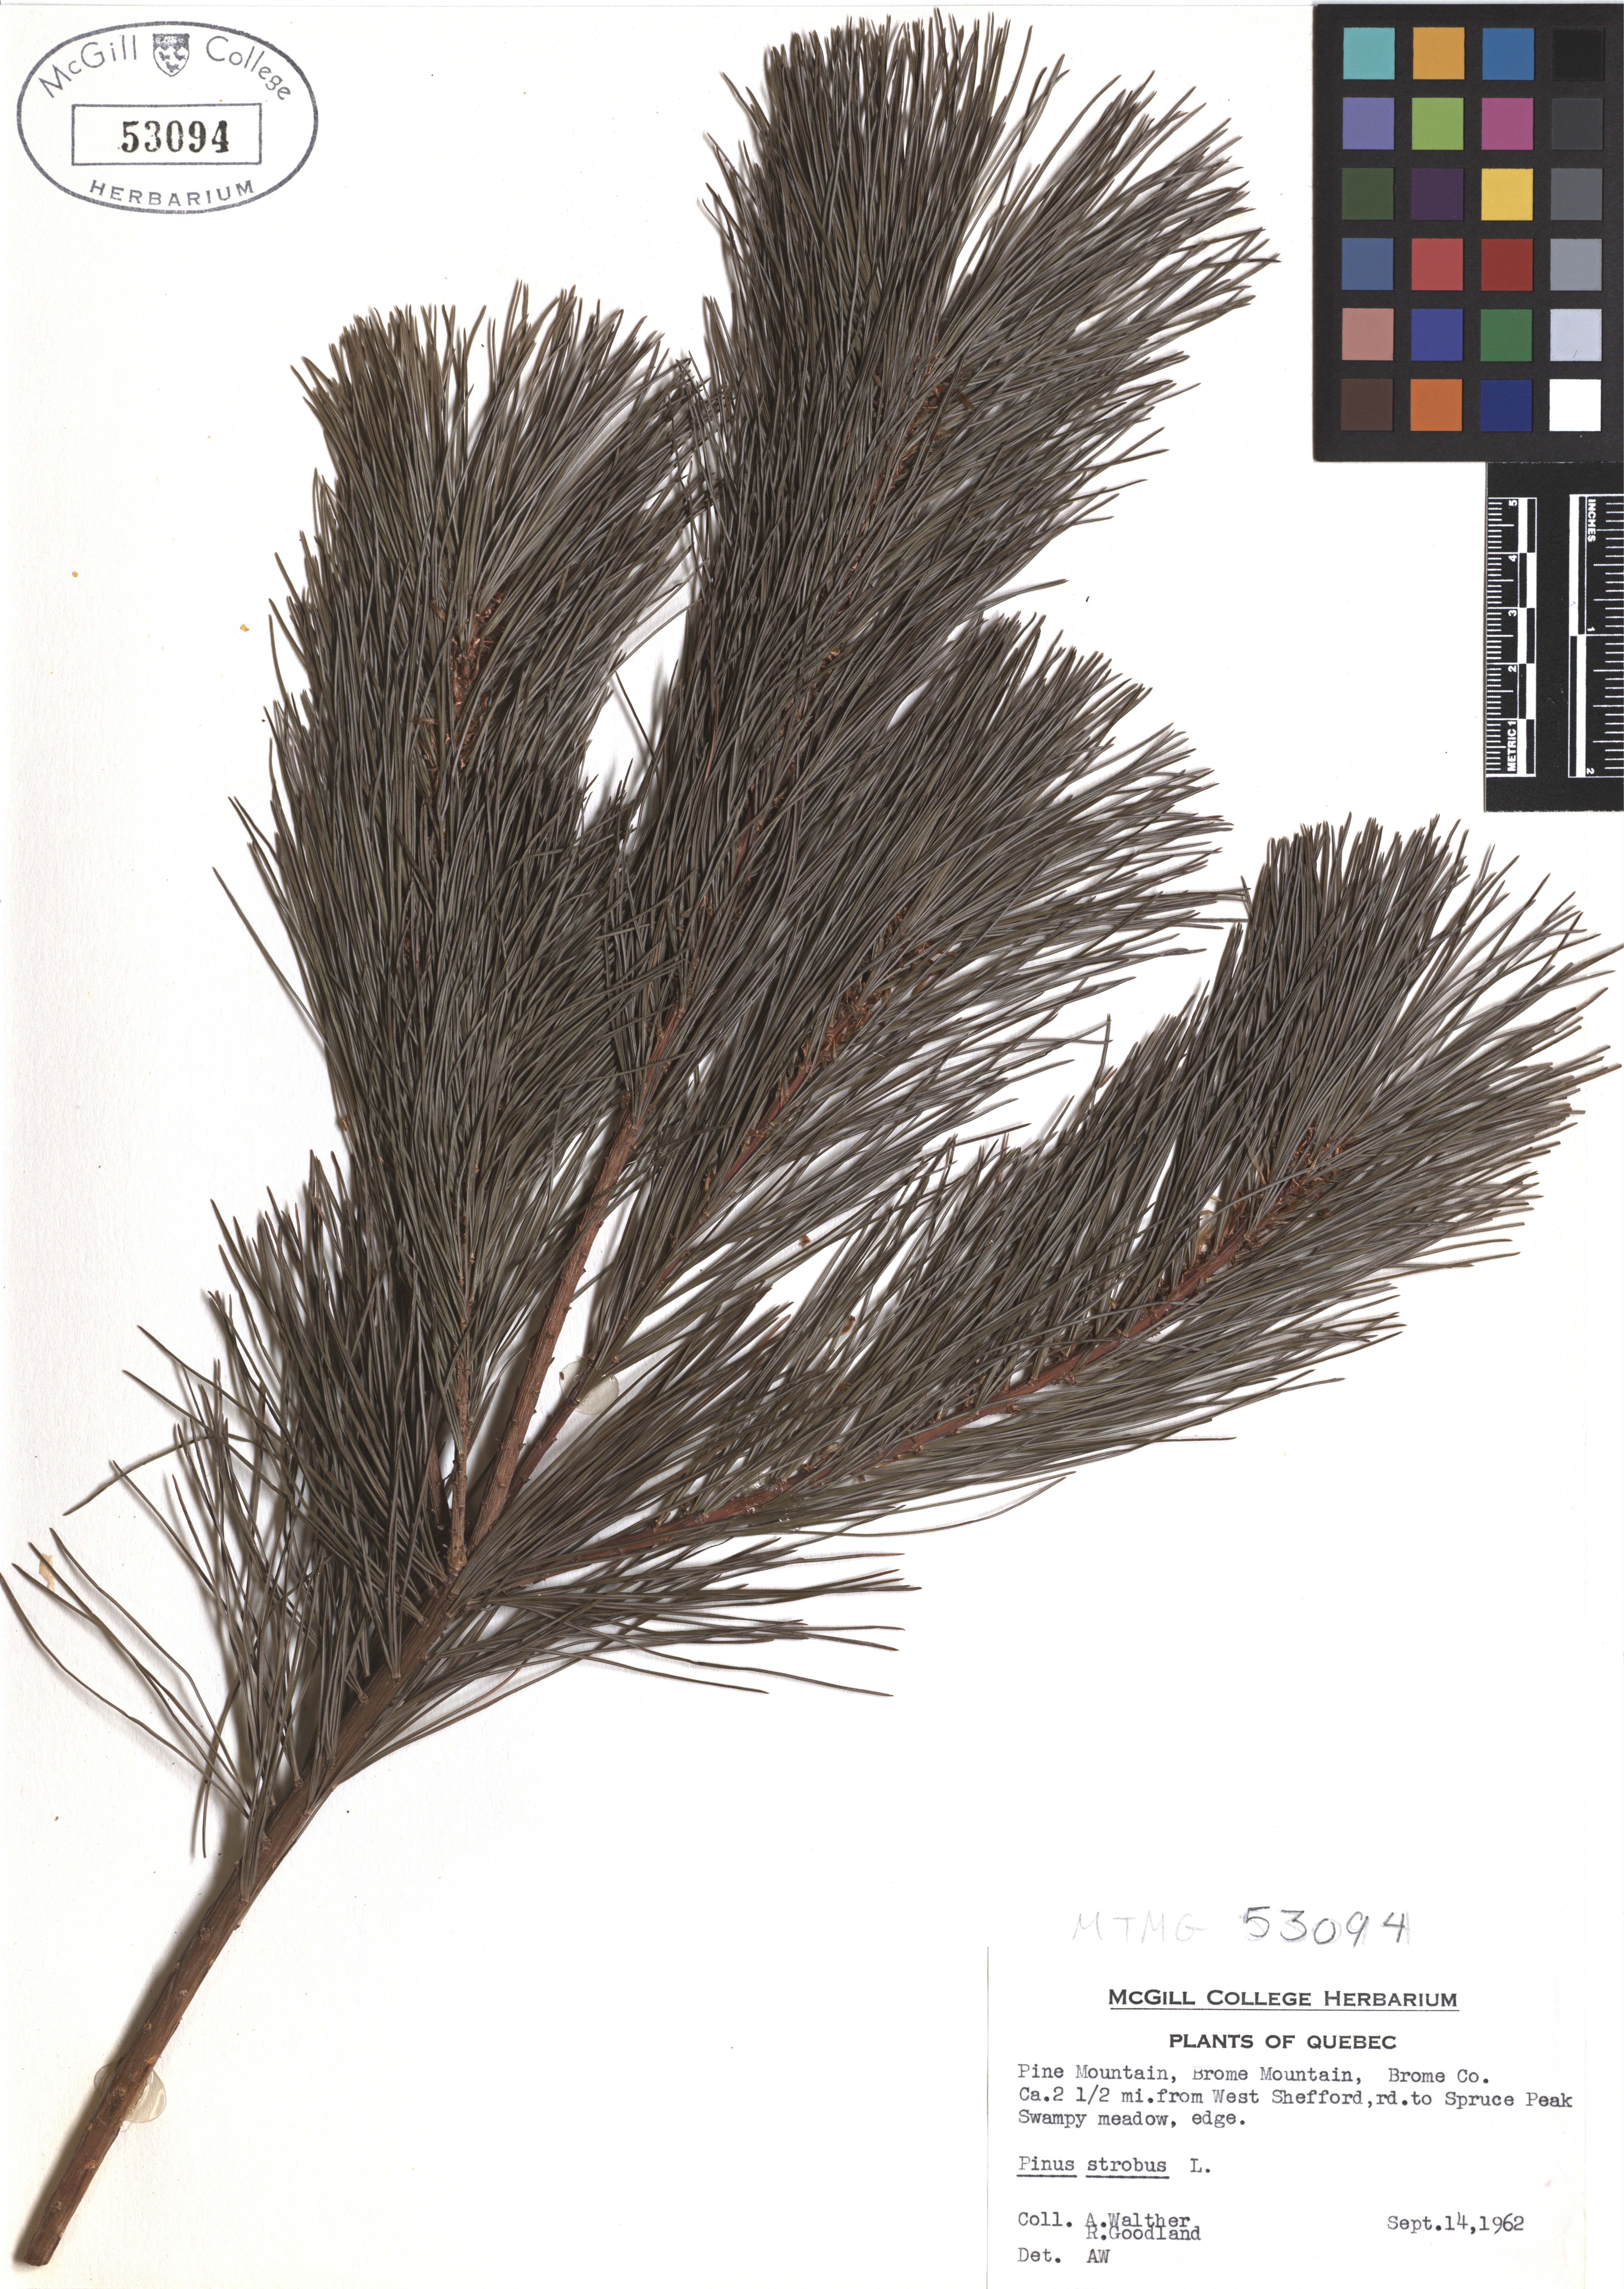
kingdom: Plantae
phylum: Tracheophyta
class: Pinopsida
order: Pinales
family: Pinaceae
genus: Pinus
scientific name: Pinus strobus
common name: Weymouth pine
